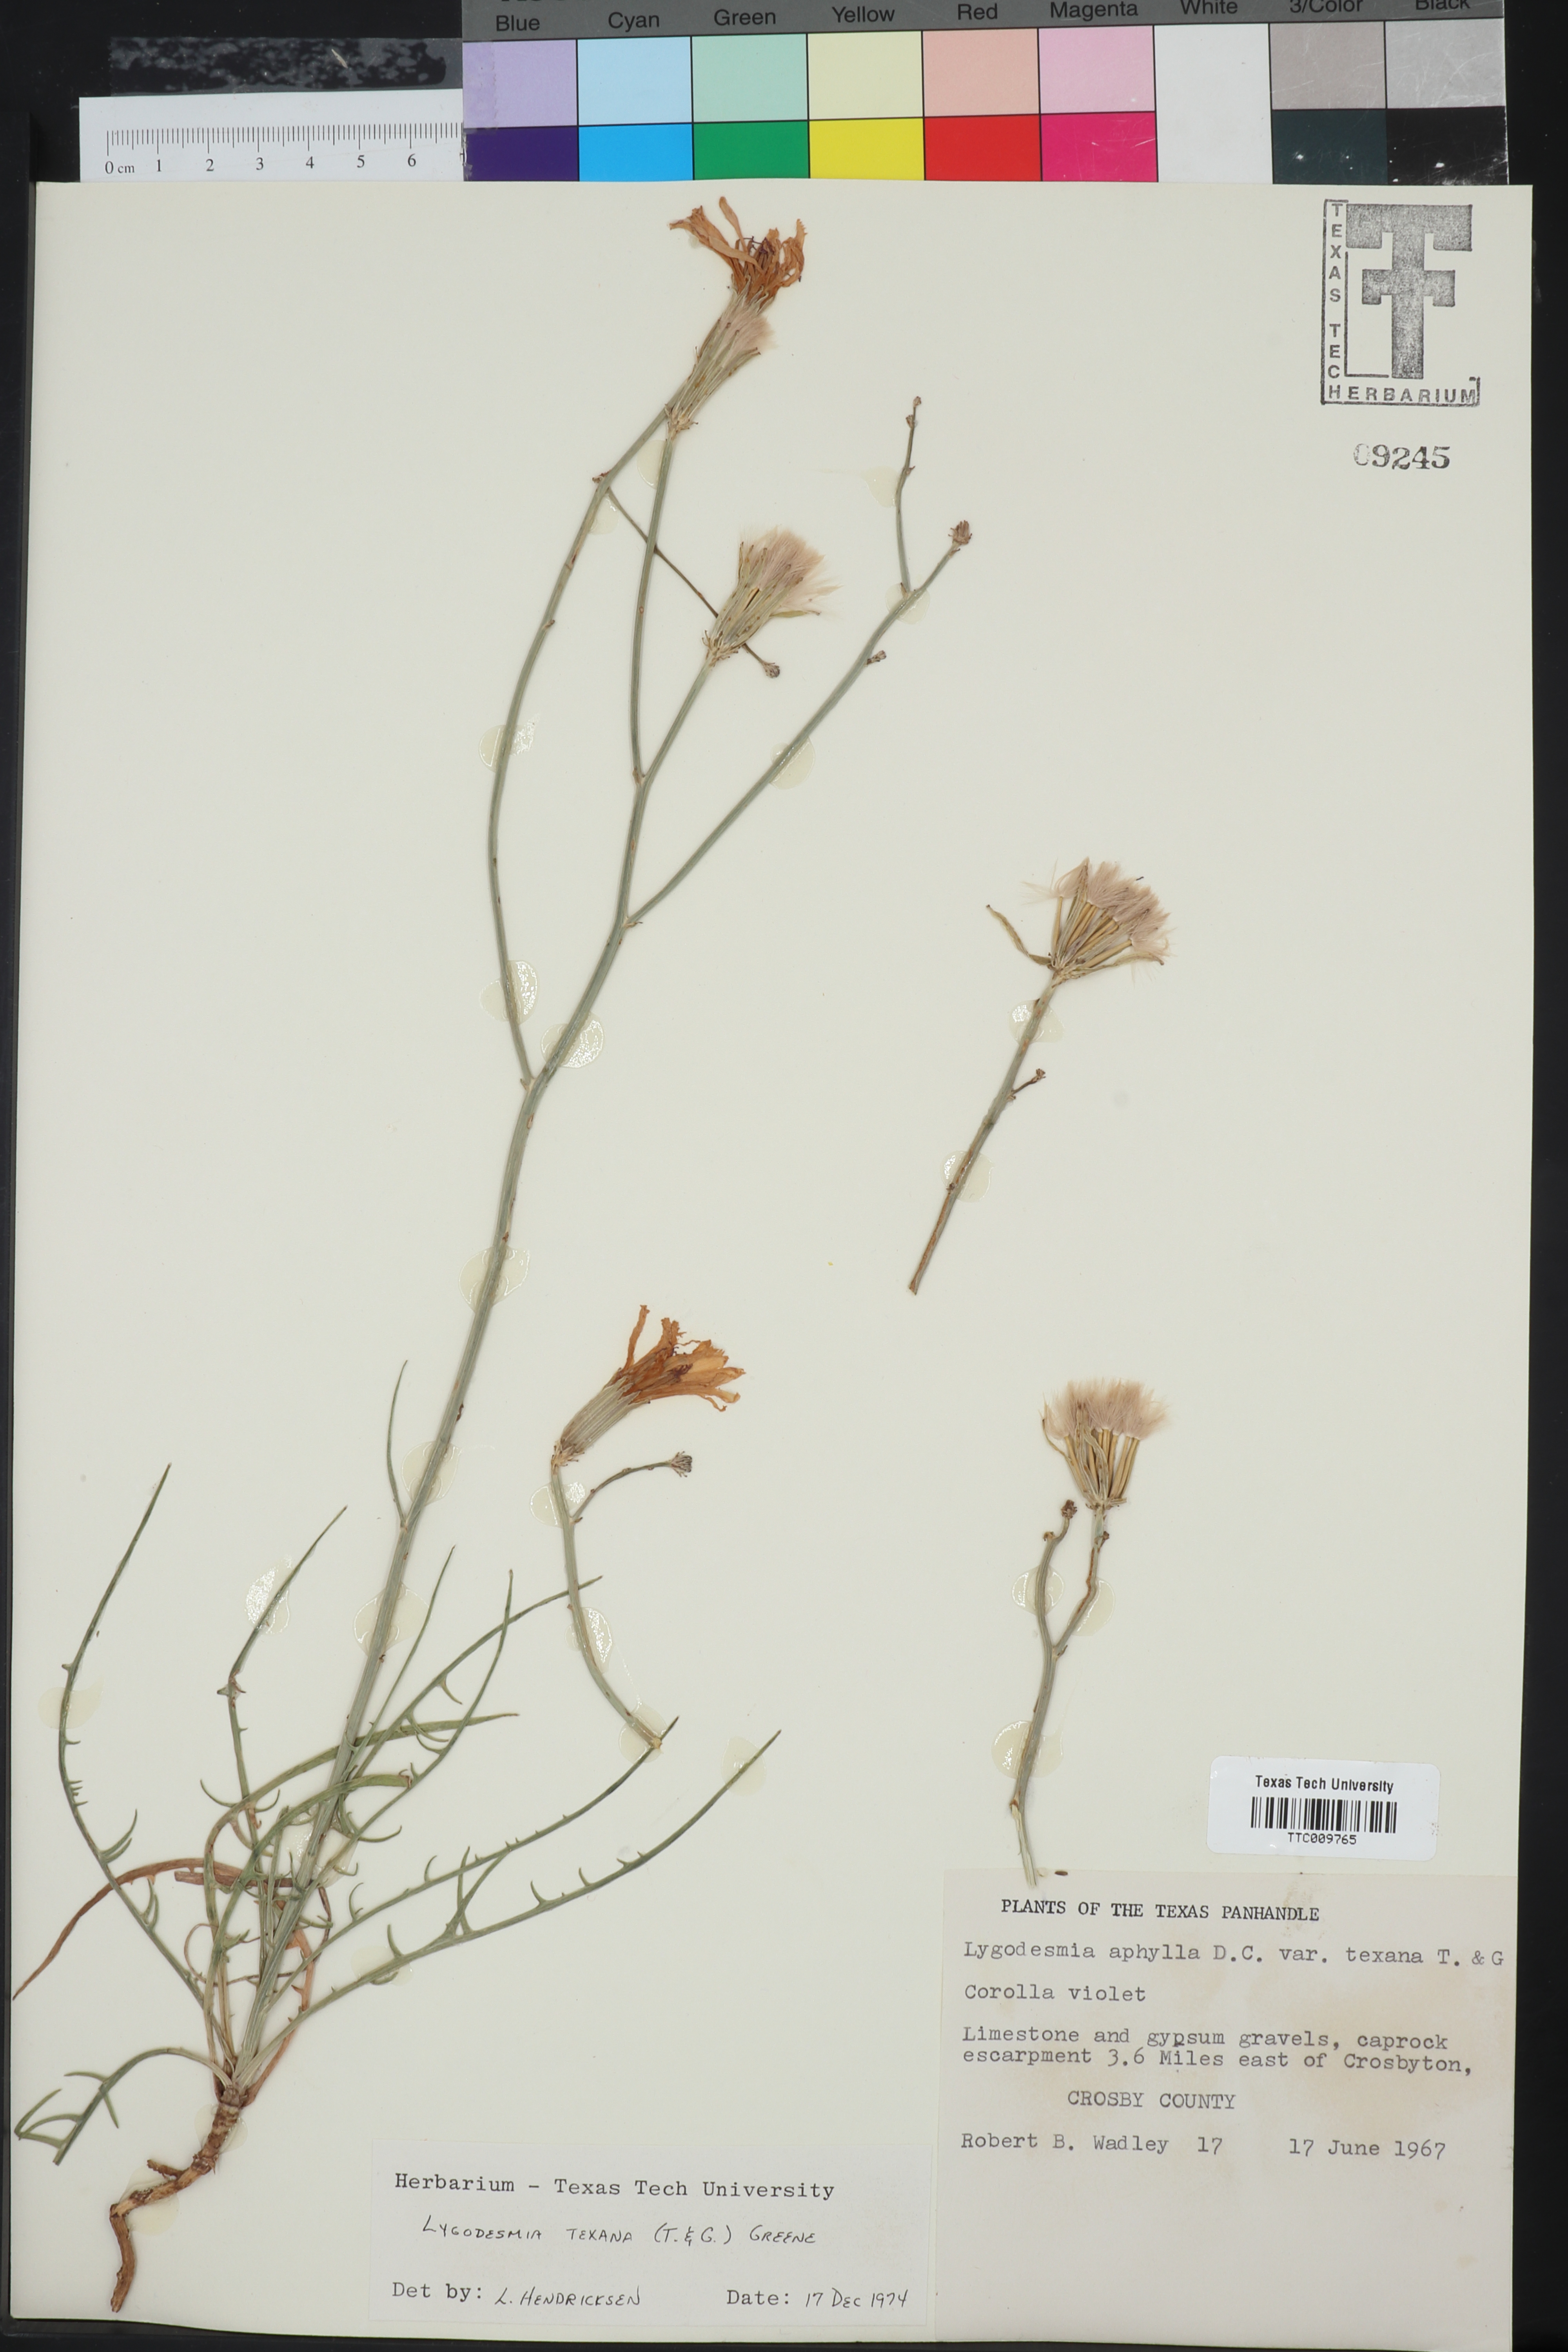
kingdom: Plantae
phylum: Tracheophyta
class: Magnoliopsida
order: Asterales
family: Asteraceae
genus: Lygodesmia
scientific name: Lygodesmia texana
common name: Texas skeleton-plant
